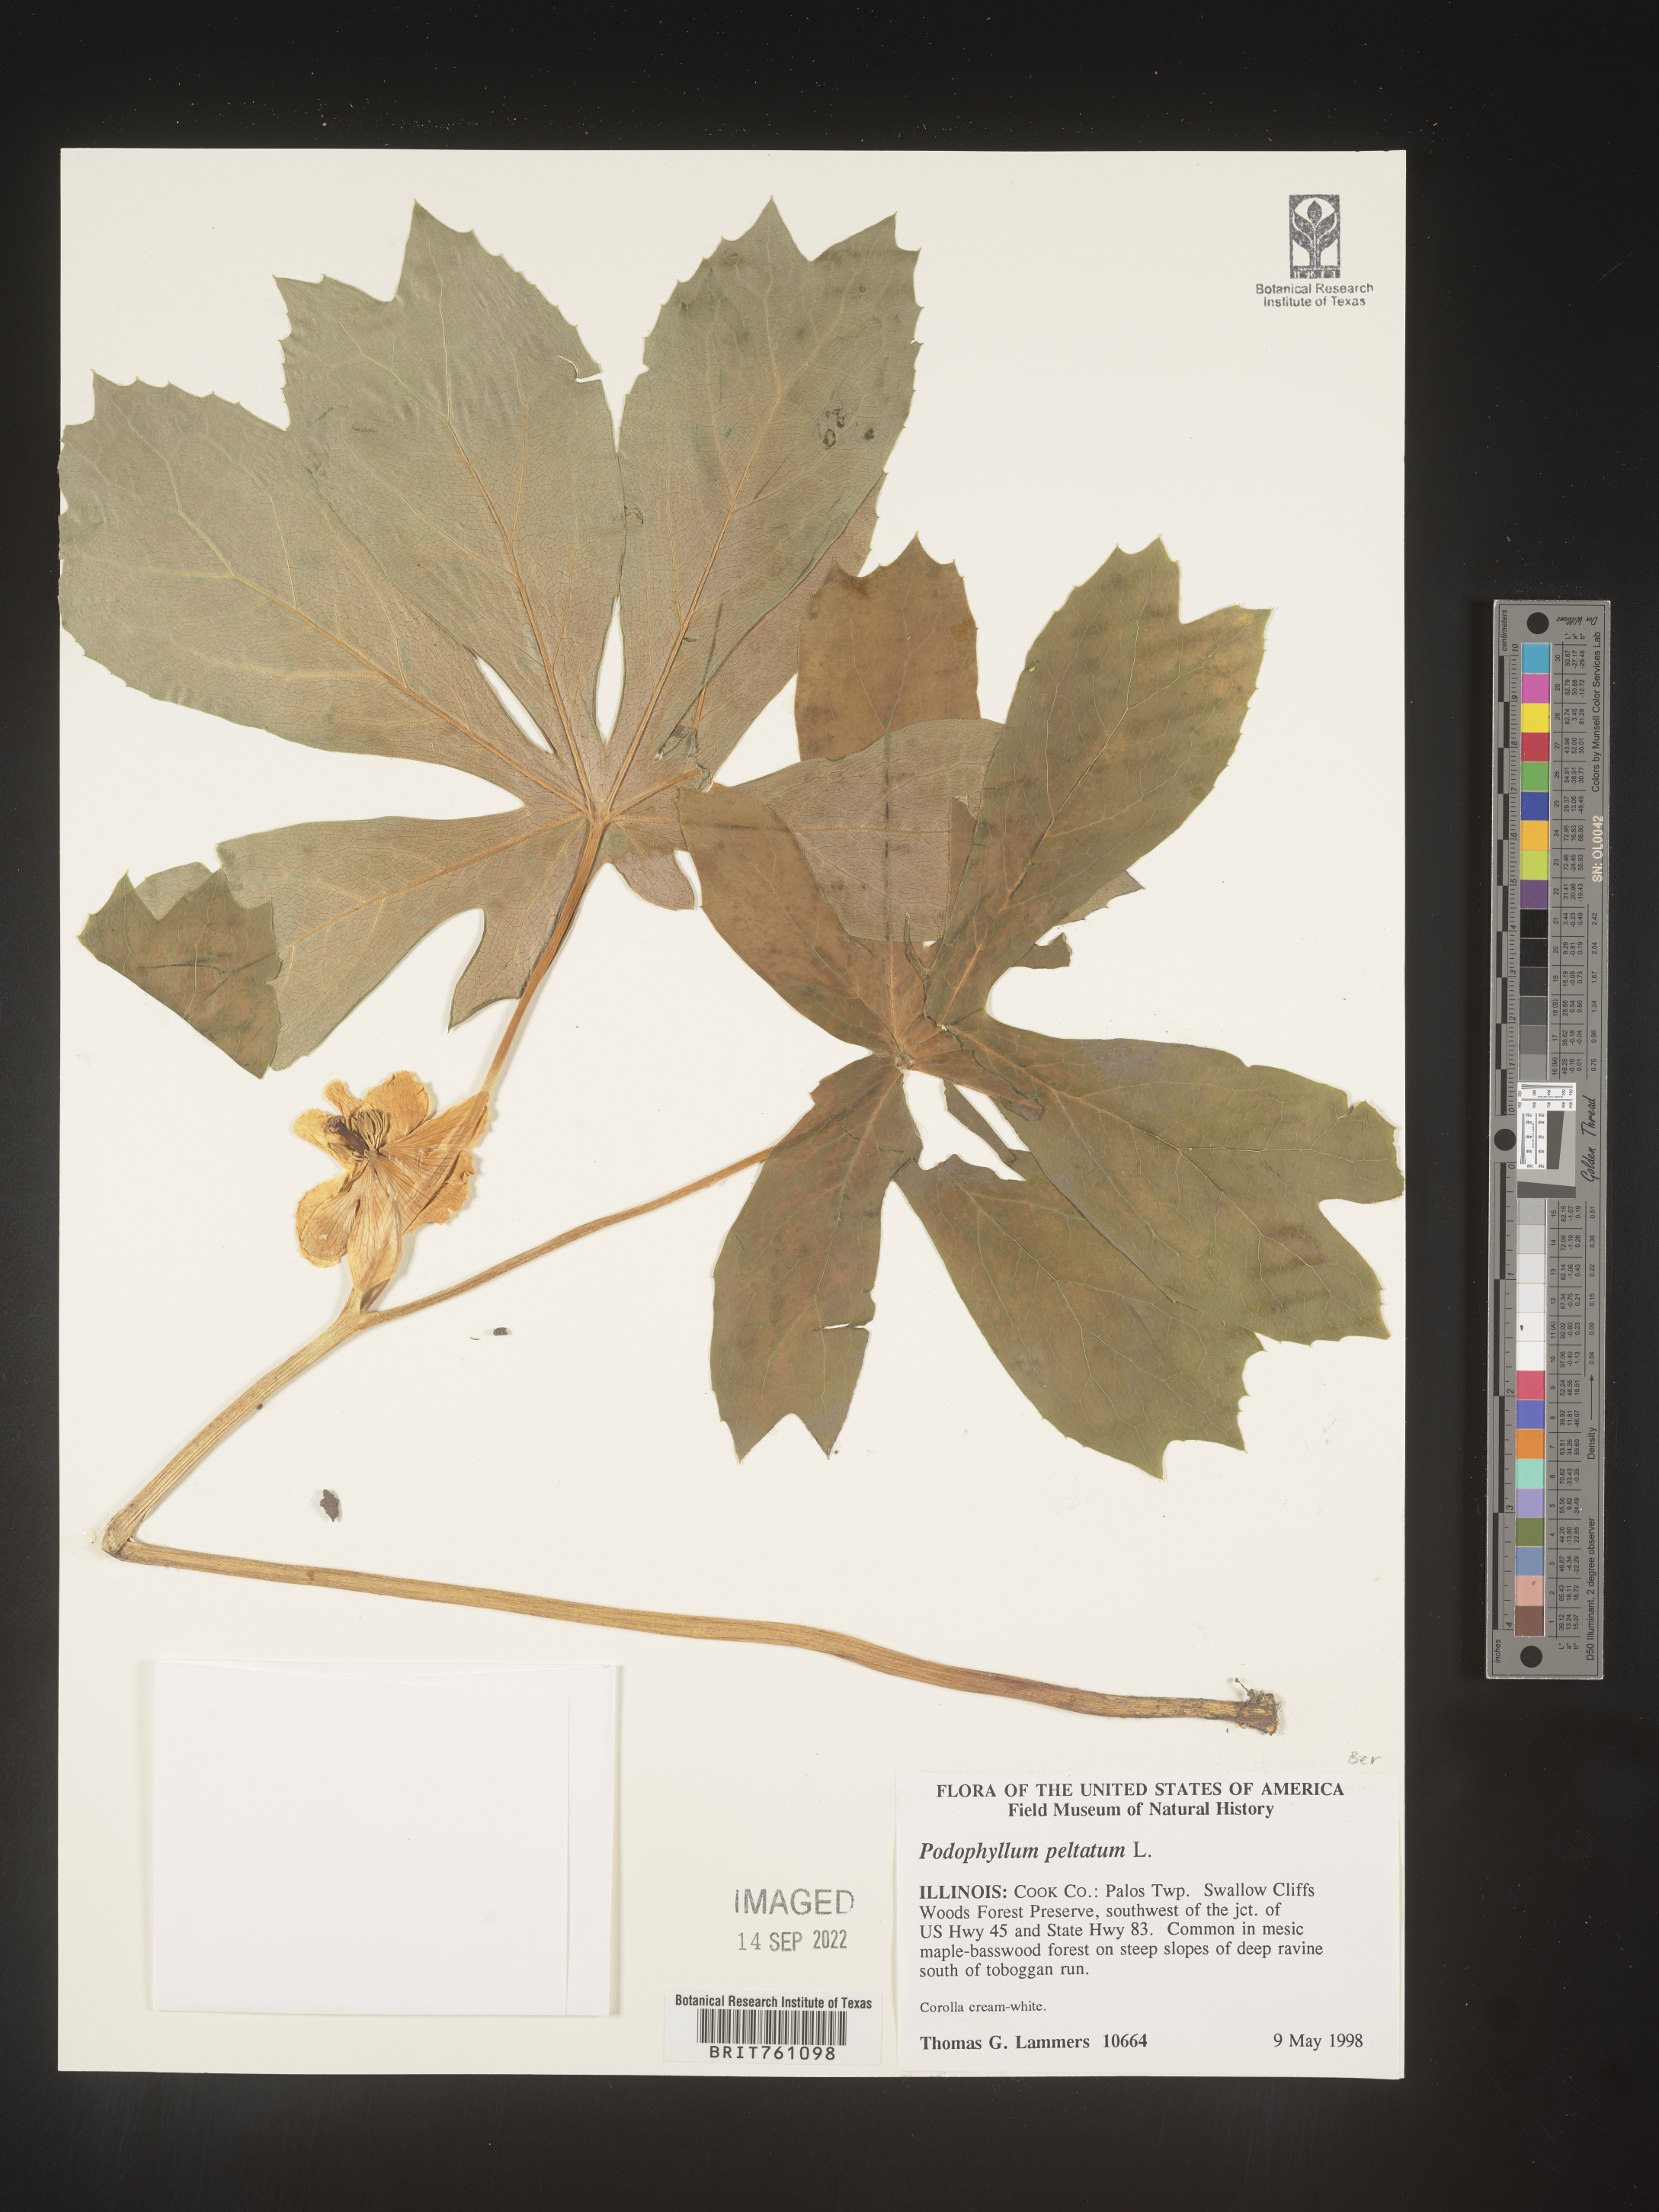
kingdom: Plantae
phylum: Tracheophyta
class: Magnoliopsida
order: Ranunculales
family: Berberidaceae
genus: Podophyllum
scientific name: Podophyllum peltatum
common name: Wild mandrake
